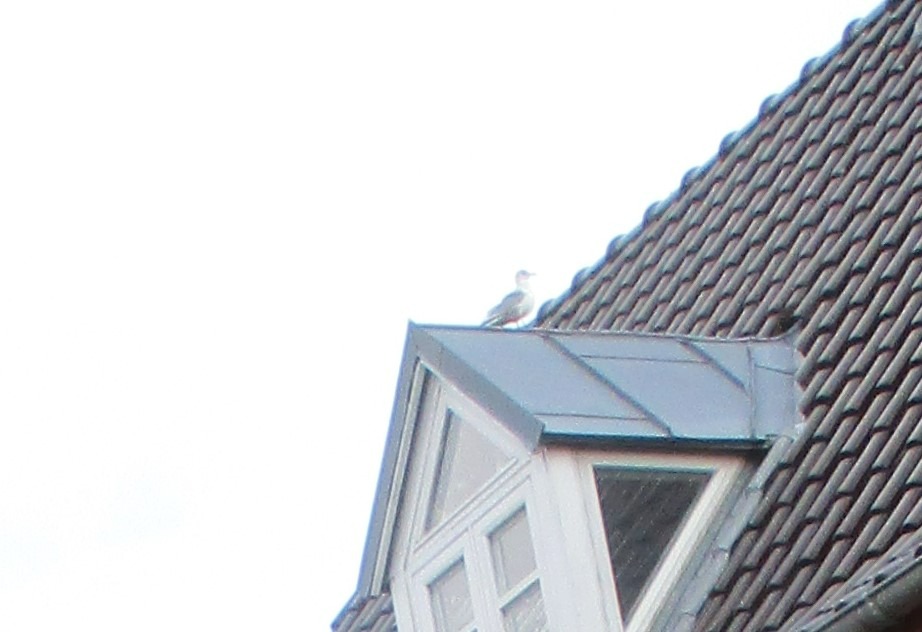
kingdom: Animalia
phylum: Chordata
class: Aves
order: Charadriiformes
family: Laridae
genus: Larus
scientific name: Larus canus
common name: Stormmåge
